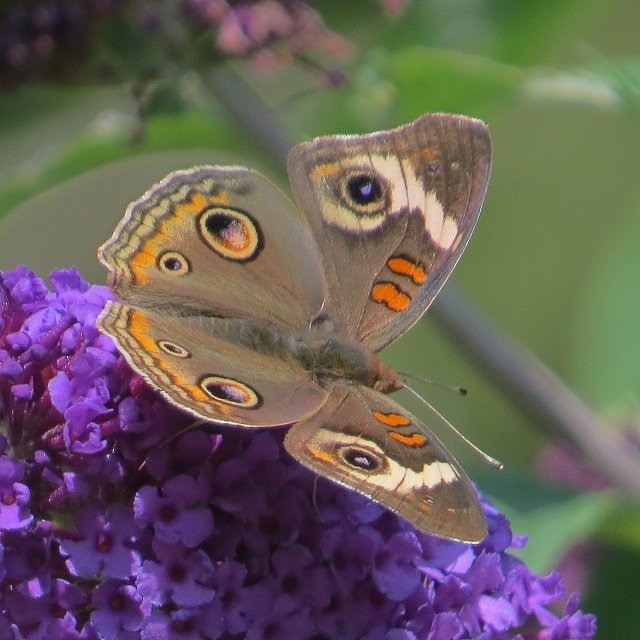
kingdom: Animalia
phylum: Arthropoda
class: Insecta
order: Lepidoptera
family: Nymphalidae
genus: Junonia
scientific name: Junonia coenia
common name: Common Buckeye
